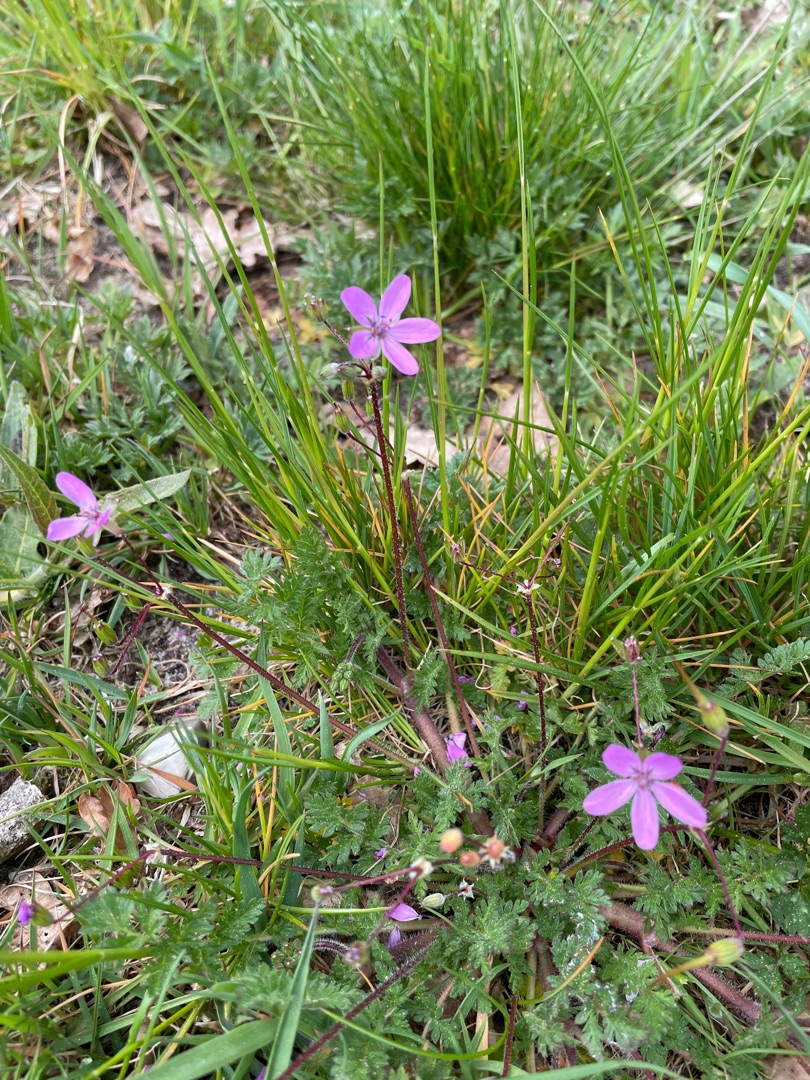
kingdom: Plantae
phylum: Tracheophyta
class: Magnoliopsida
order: Geraniales
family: Geraniaceae
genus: Erodium
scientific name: Erodium cicutarium
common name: Hejrenæb
